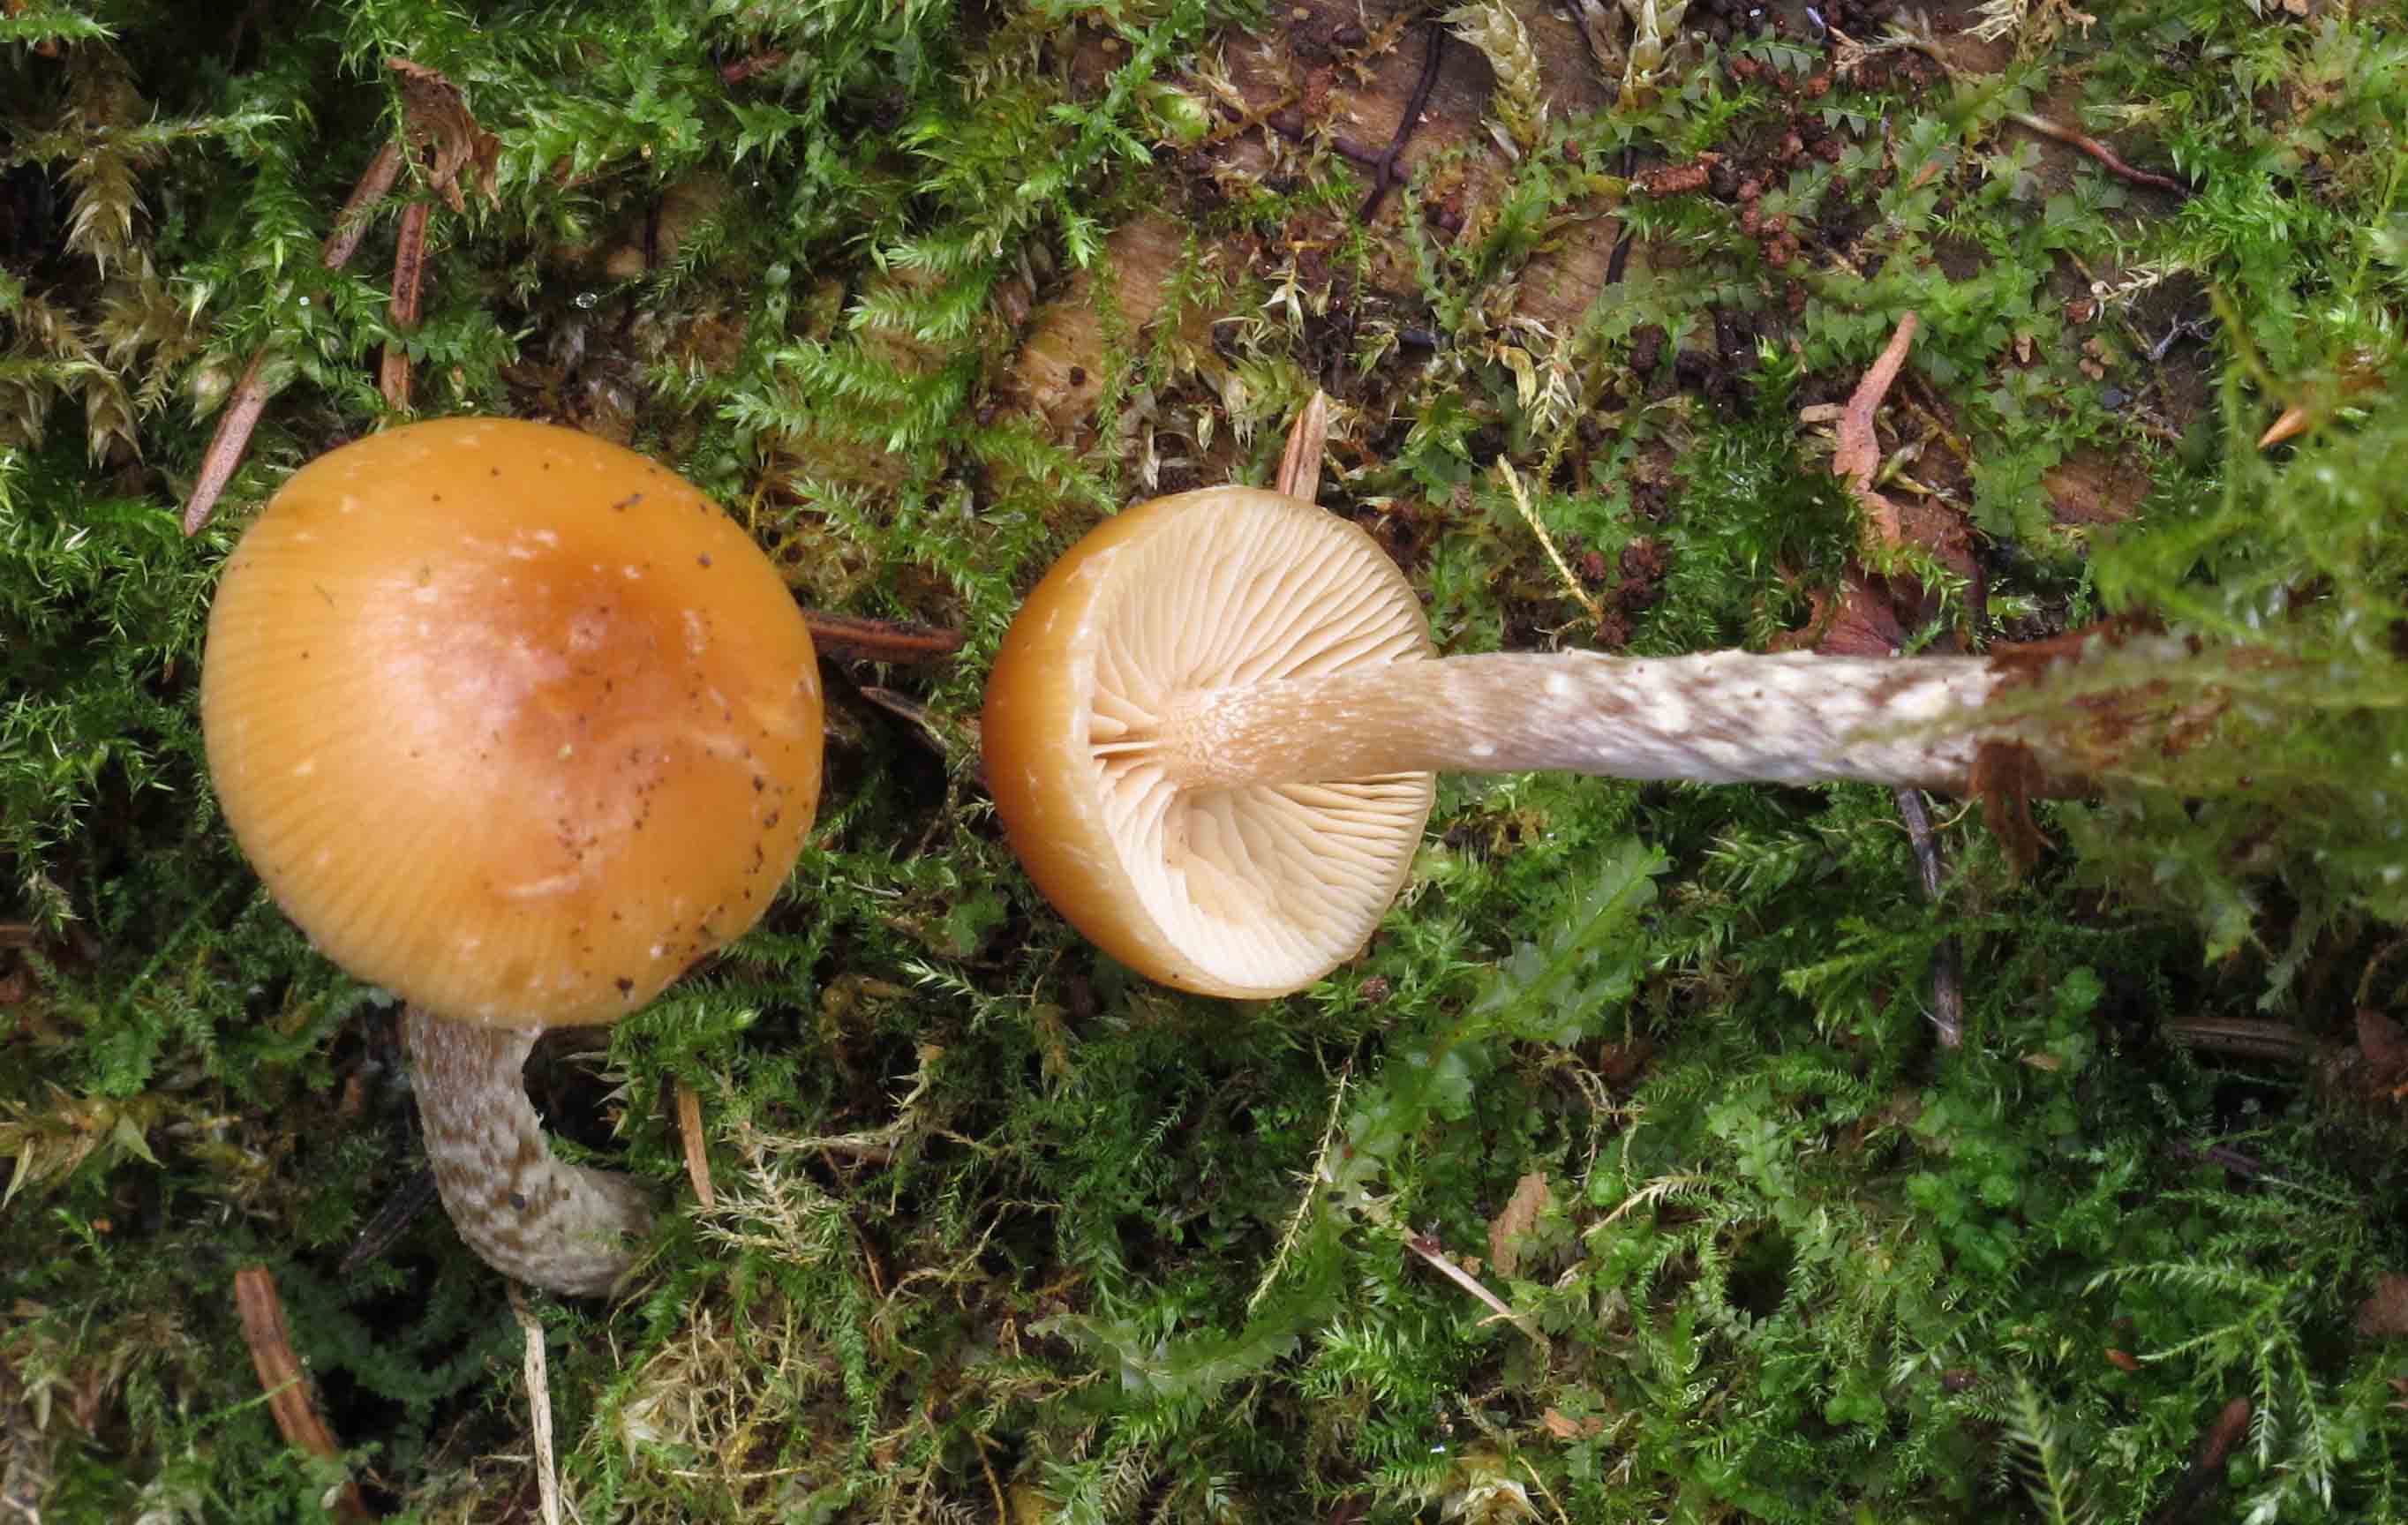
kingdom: Fungi
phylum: Basidiomycota
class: Agaricomycetes
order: Agaricales
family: Hymenogastraceae
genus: Galerina
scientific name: Galerina sideroides
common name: træflis-hjelmhat
